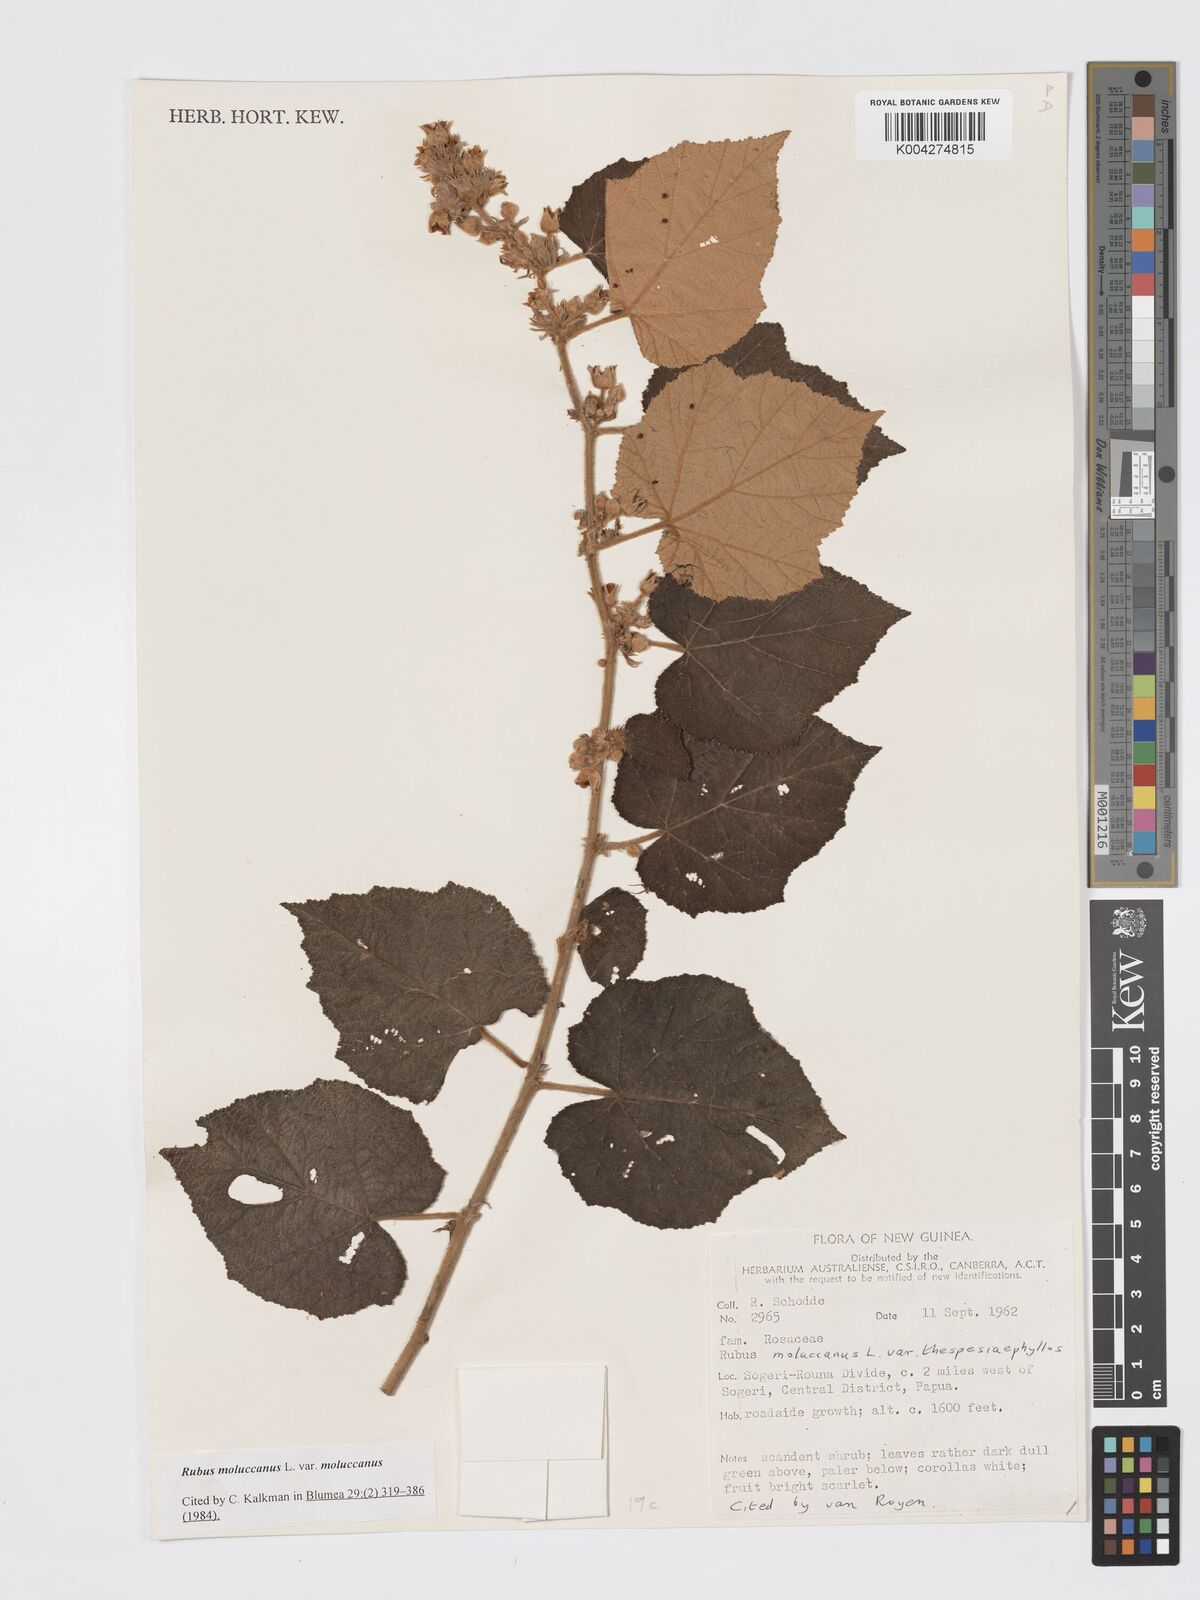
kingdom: Plantae
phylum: Tracheophyta
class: Magnoliopsida
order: Rosales
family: Rosaceae
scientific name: Rosaceae
